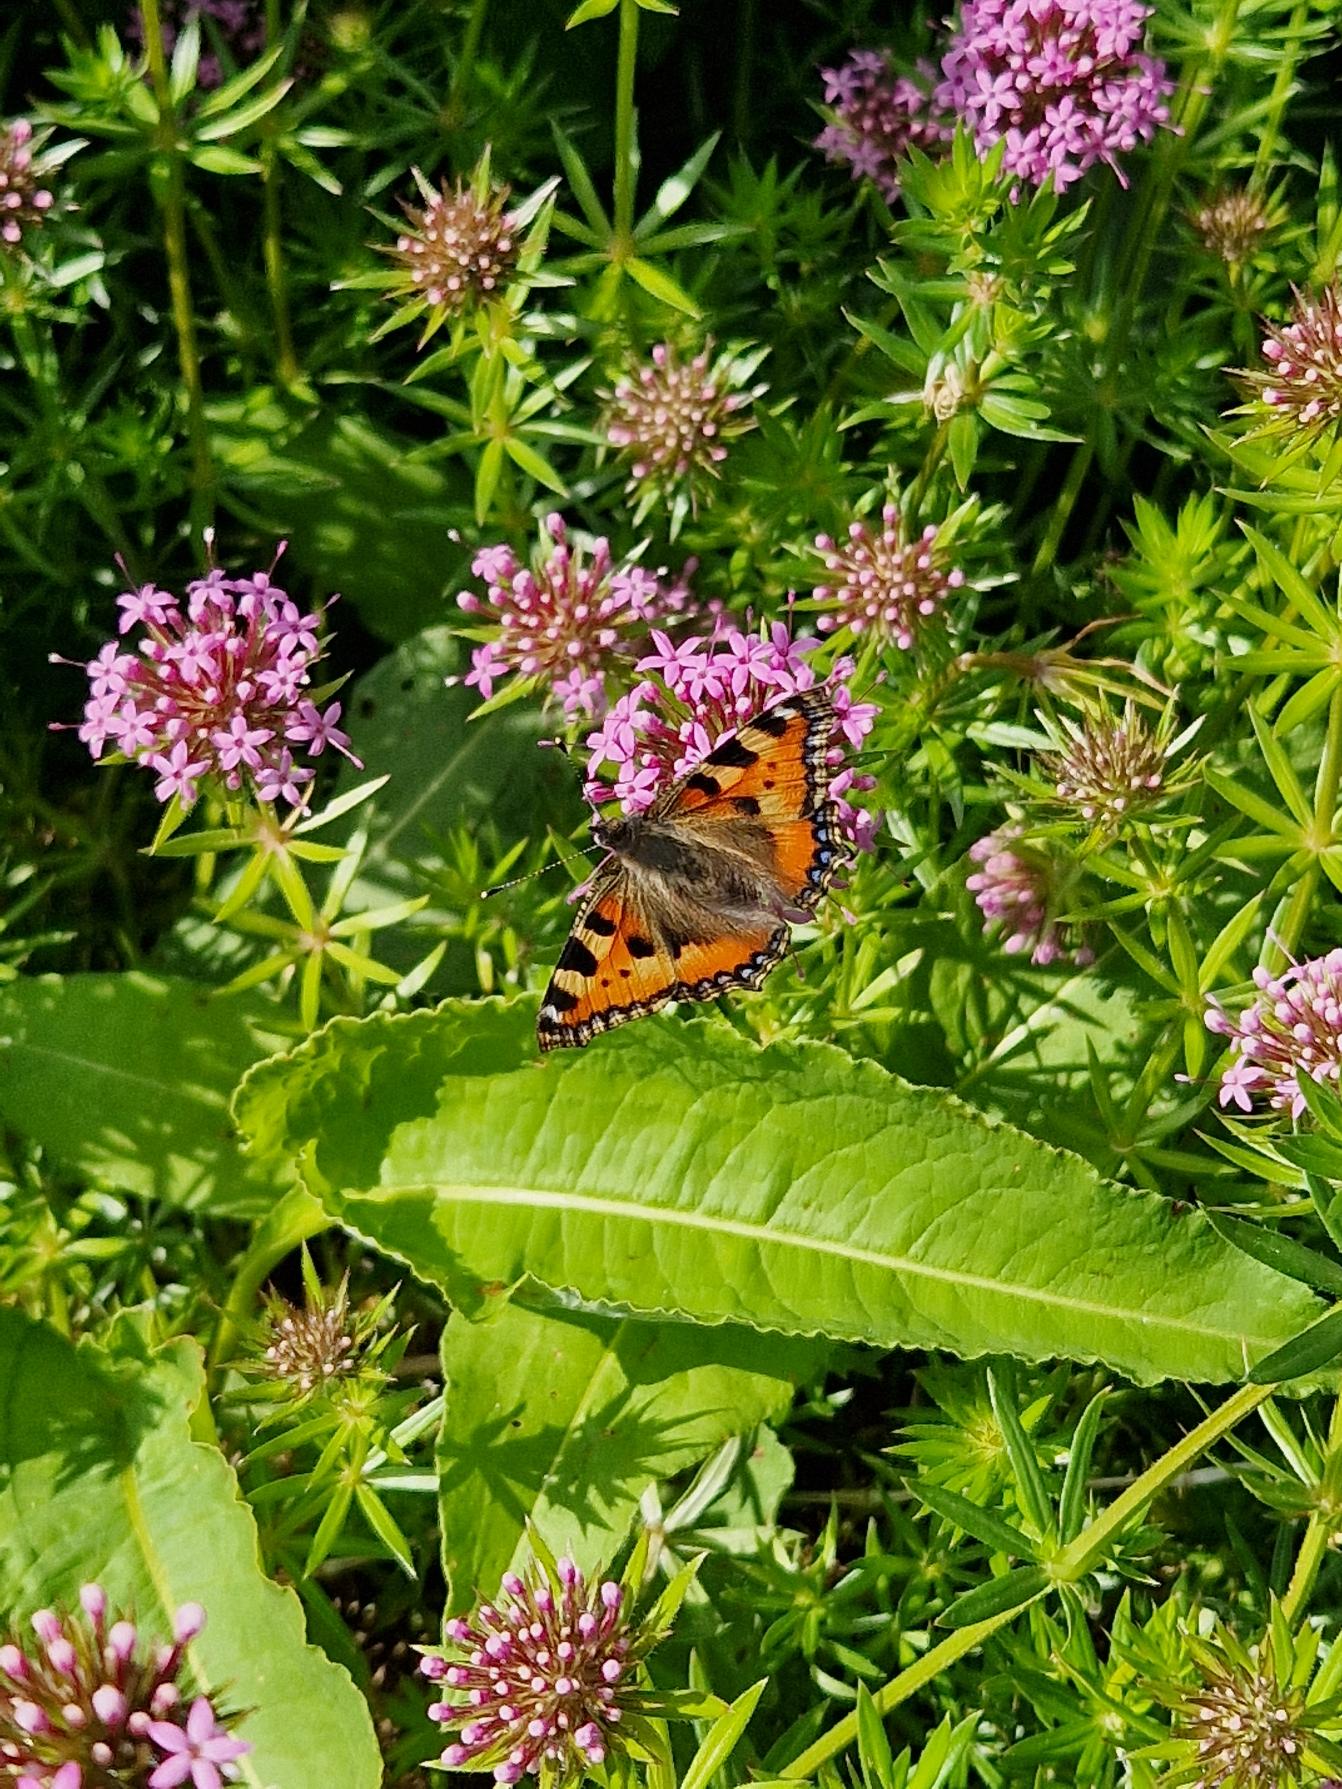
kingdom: Animalia
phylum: Arthropoda
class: Insecta
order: Lepidoptera
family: Nymphalidae
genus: Aglais
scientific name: Aglais urticae
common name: Nældens takvinge
